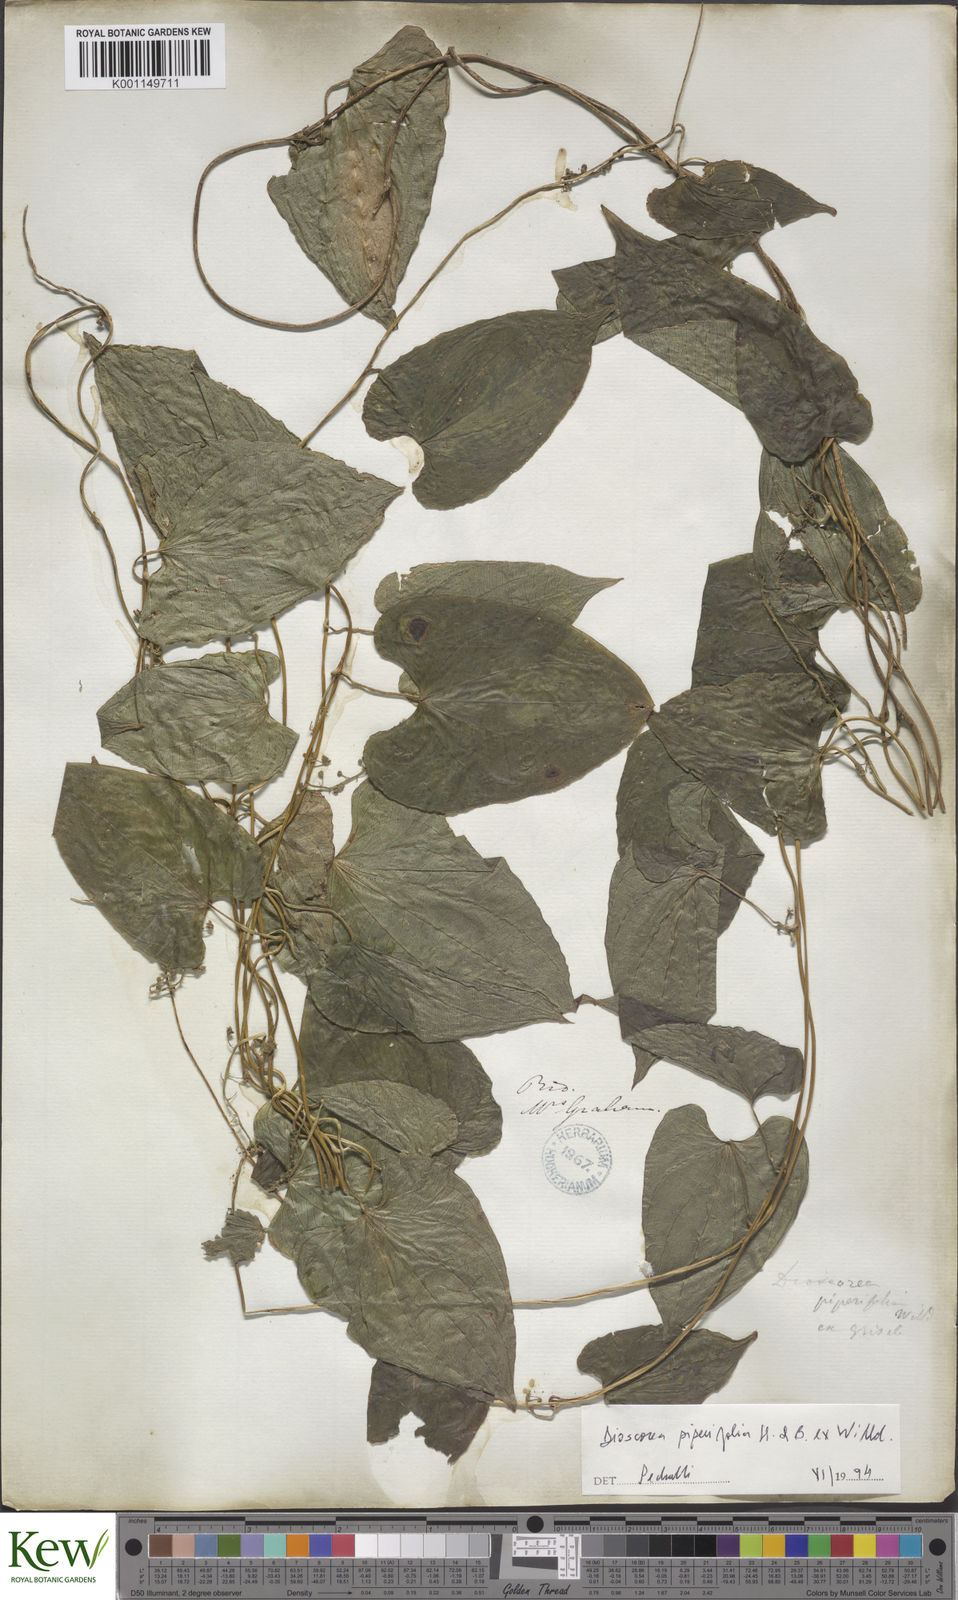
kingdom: Plantae
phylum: Tracheophyta
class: Liliopsida
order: Dioscoreales
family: Dioscoreaceae
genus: Dioscorea
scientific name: Dioscorea piperifolia
